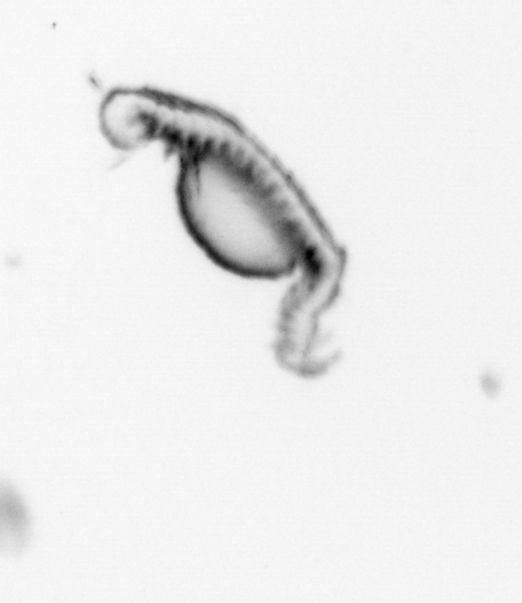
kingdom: Animalia
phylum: Annelida
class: Polychaeta
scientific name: Polychaeta
